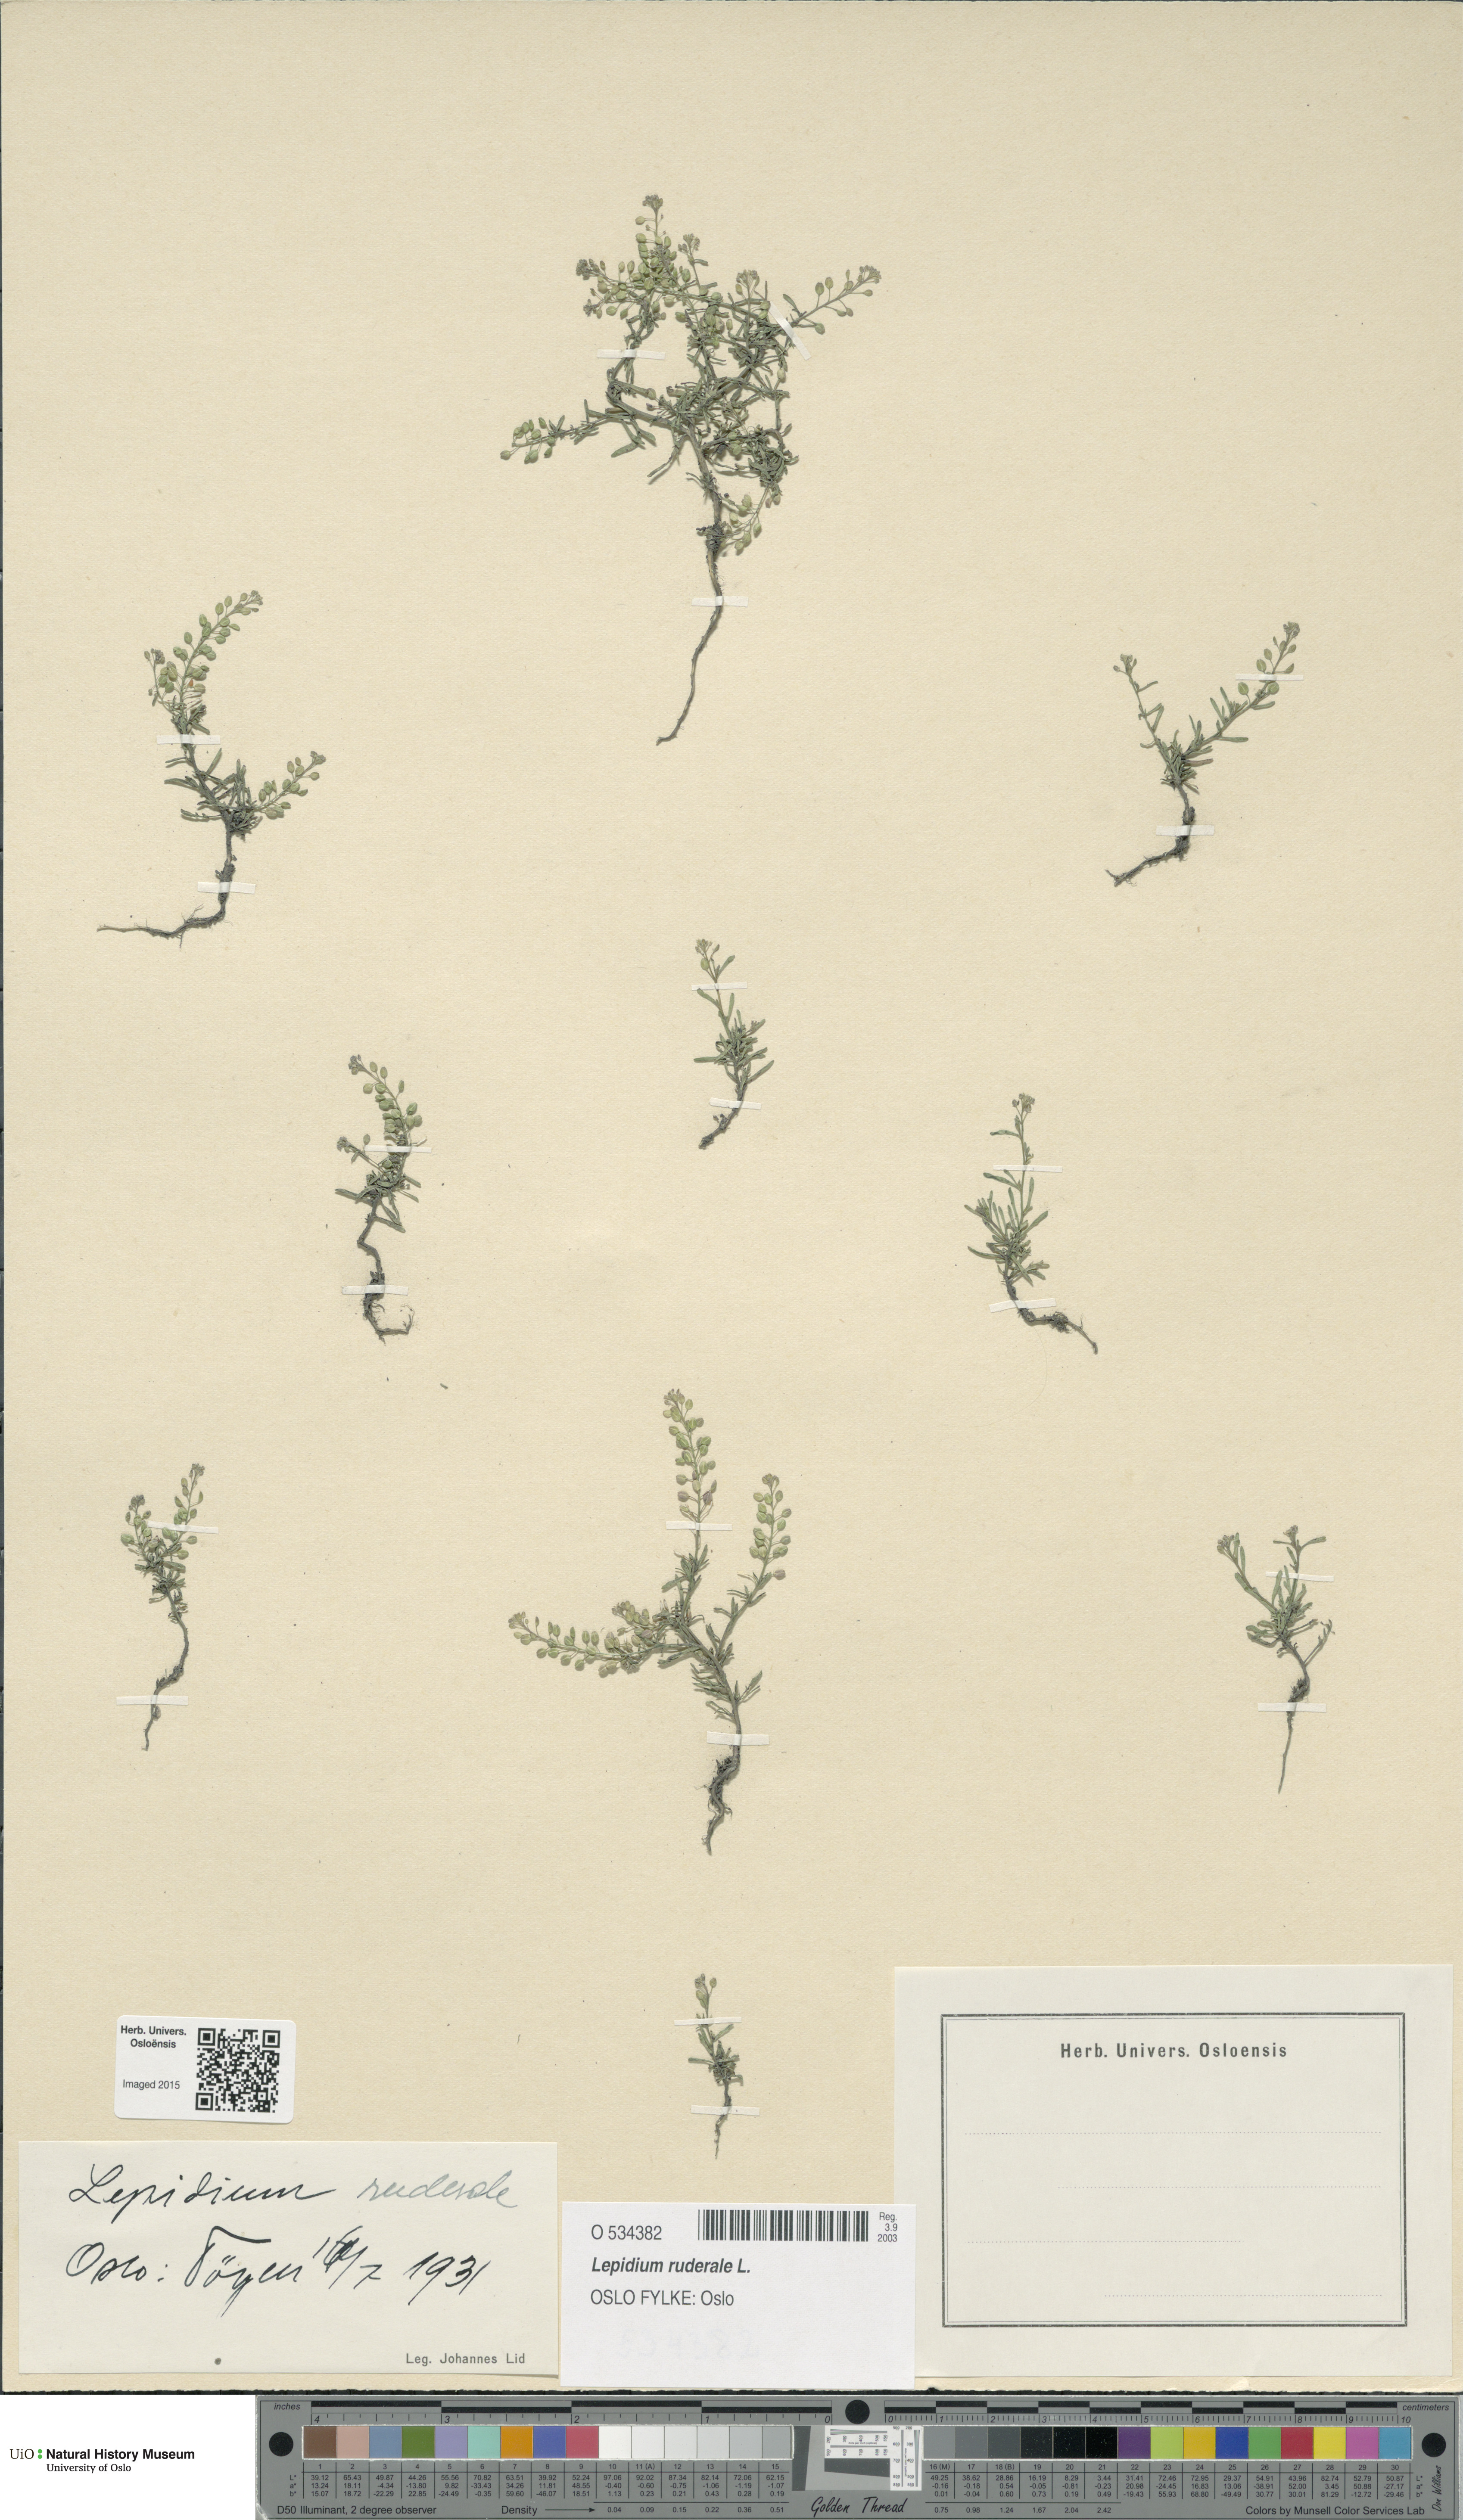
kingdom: Plantae
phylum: Tracheophyta
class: Magnoliopsida
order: Brassicales
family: Brassicaceae
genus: Lepidium
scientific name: Lepidium ruderale
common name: Narrow-leaved pepperwort
